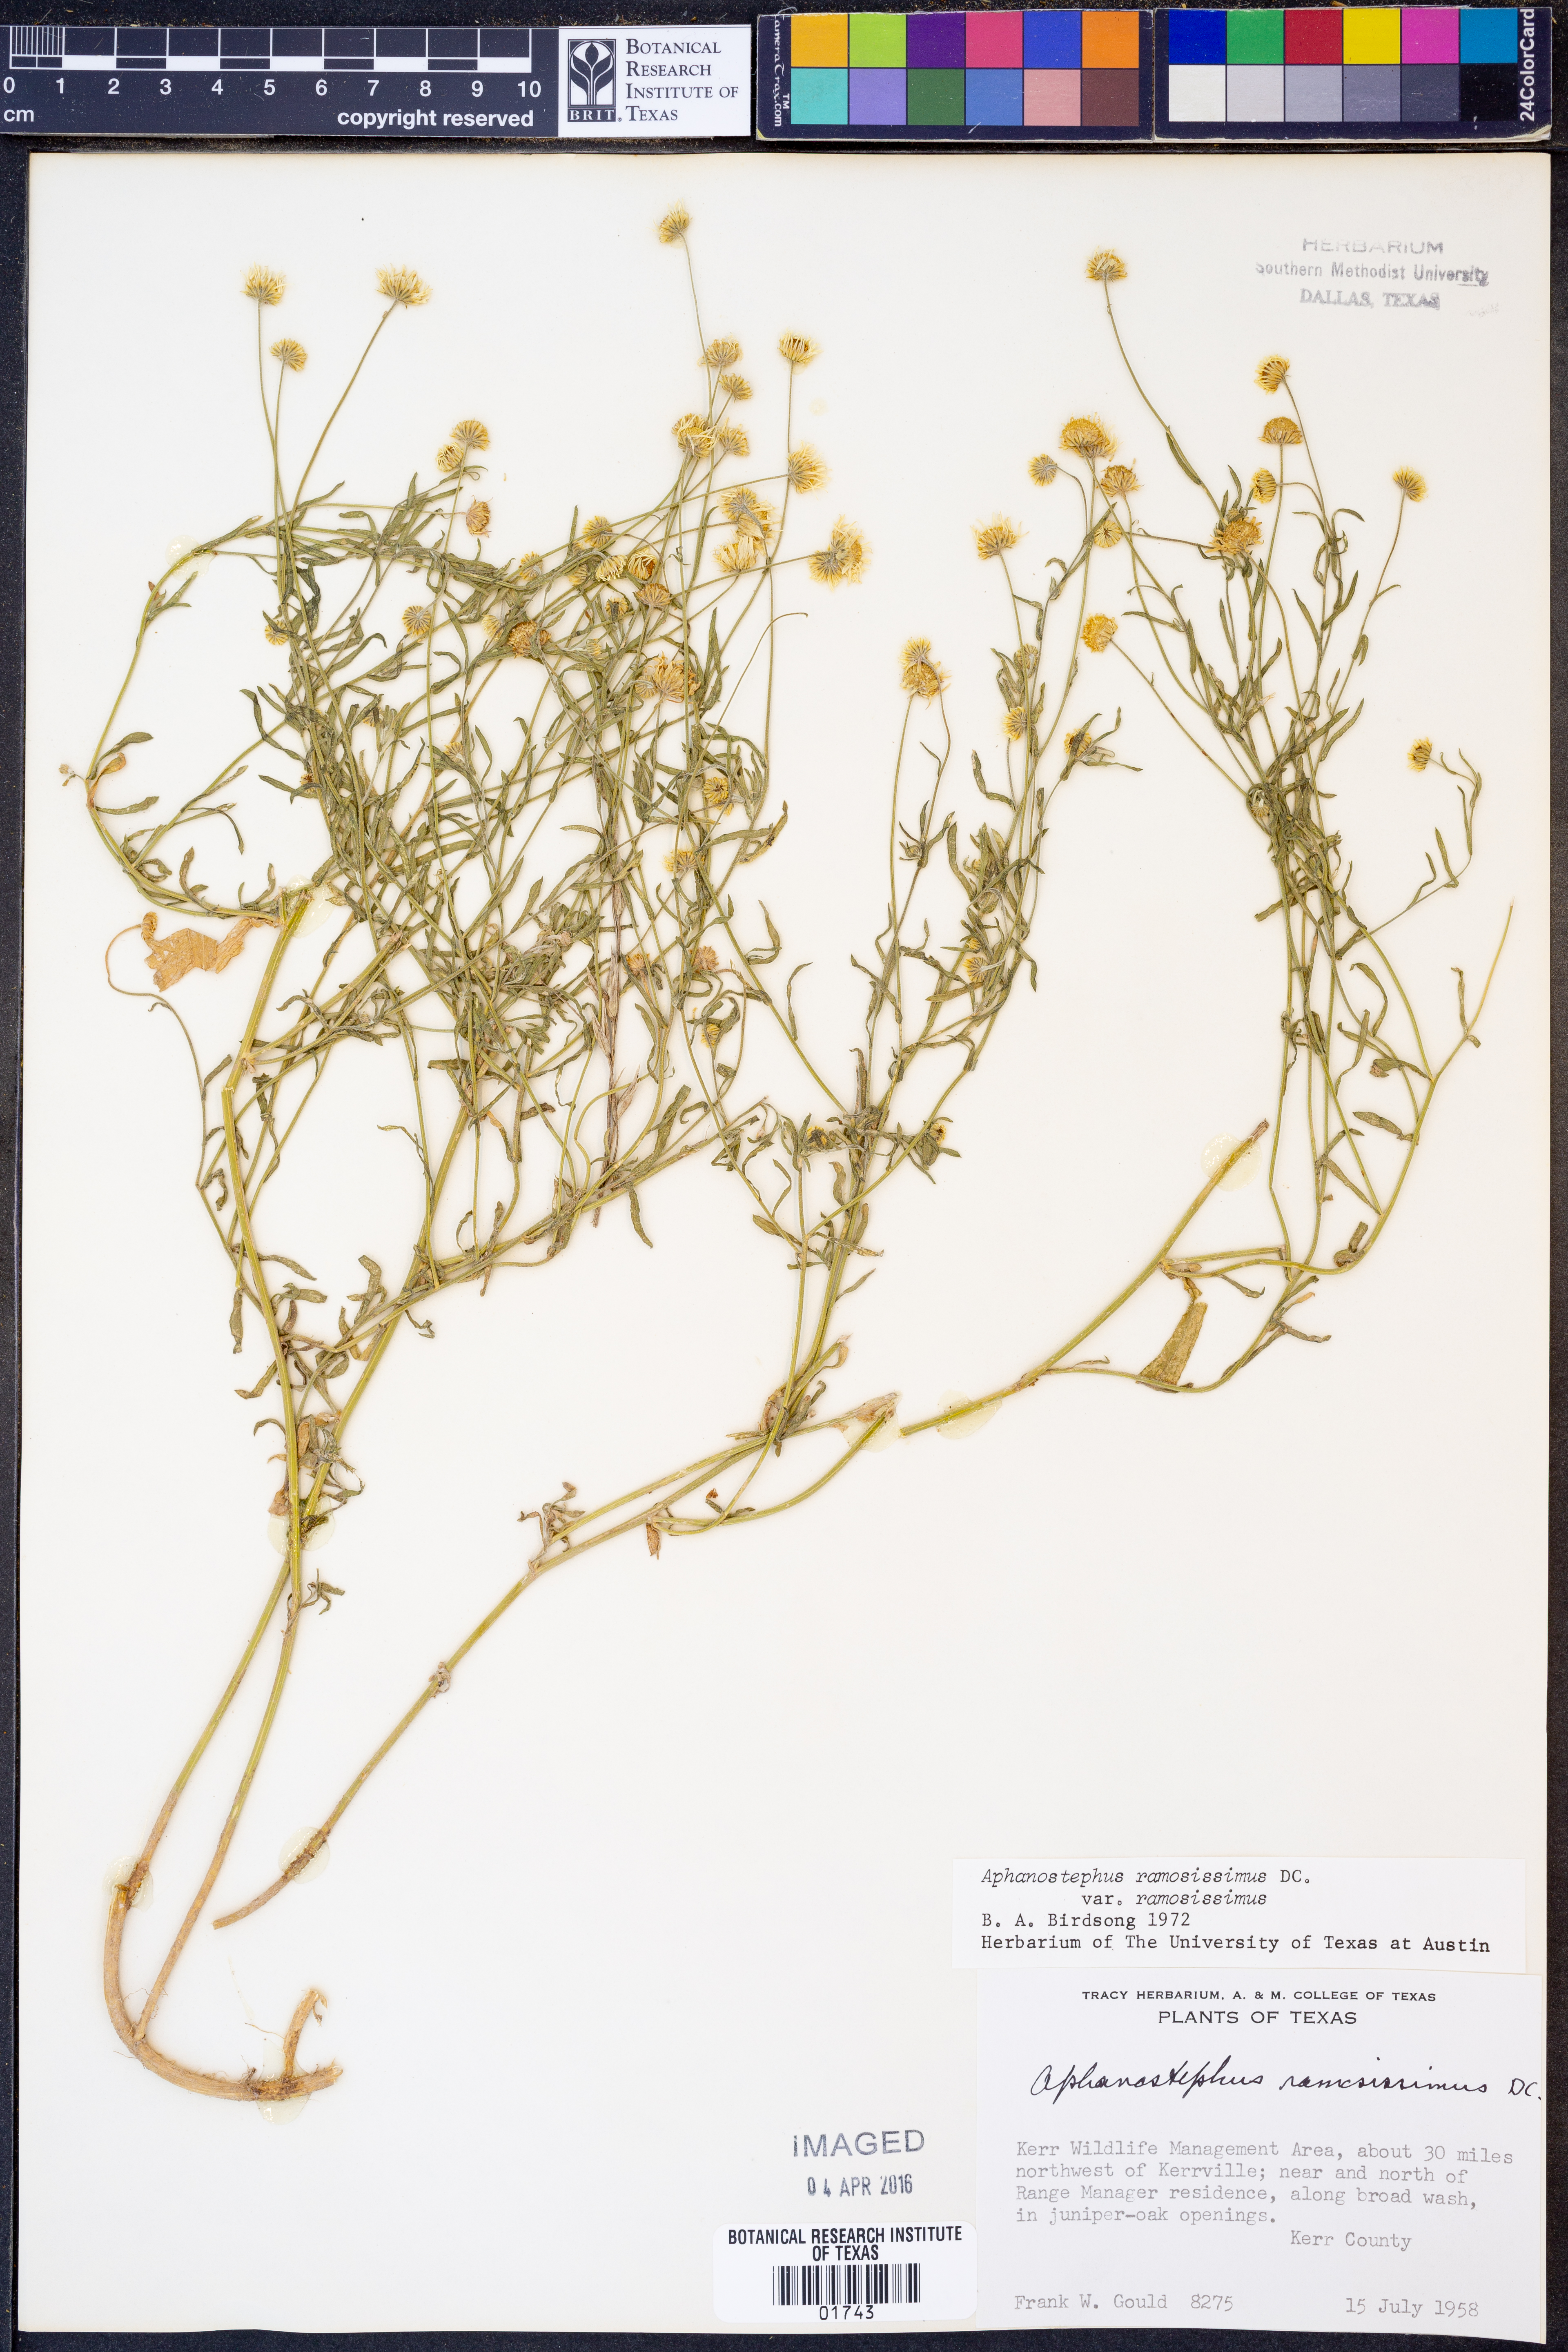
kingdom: Plantae
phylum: Tracheophyta
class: Magnoliopsida
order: Asterales
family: Asteraceae
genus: Aphanostephus
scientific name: Aphanostephus ramosissimus
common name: Plains lazy daisy
